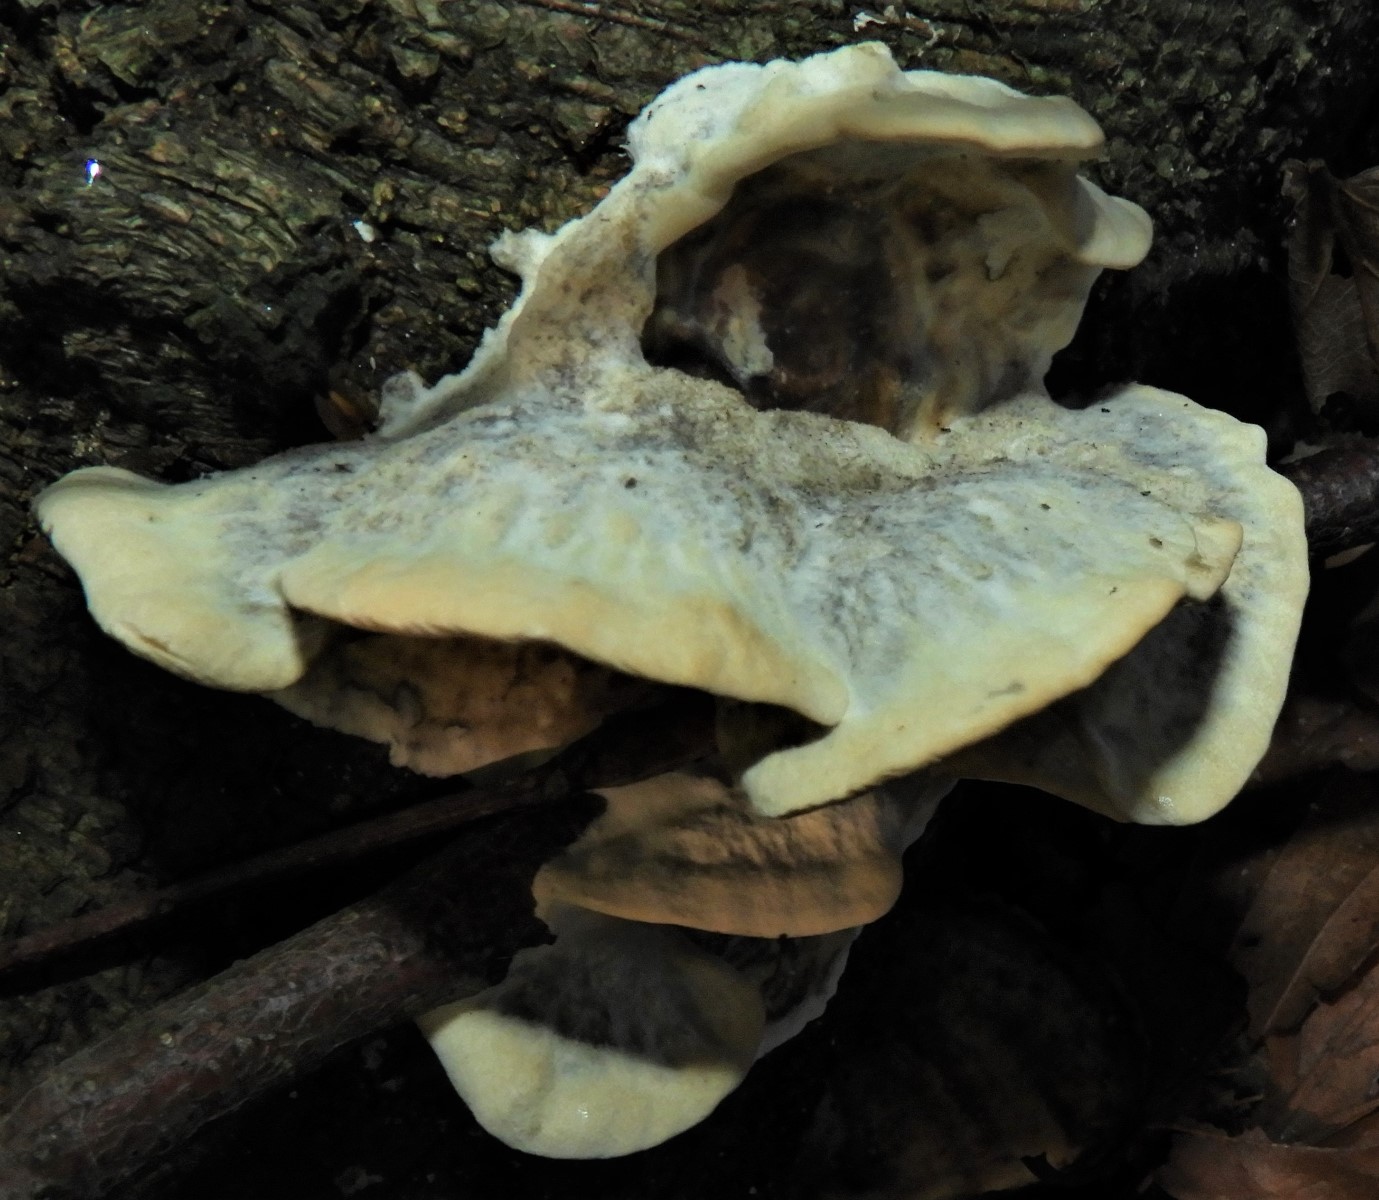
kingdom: Fungi
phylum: Basidiomycota
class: Agaricomycetes
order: Polyporales
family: Phanerochaetaceae
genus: Bjerkandera
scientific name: Bjerkandera adusta
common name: sveden sodporesvamp
